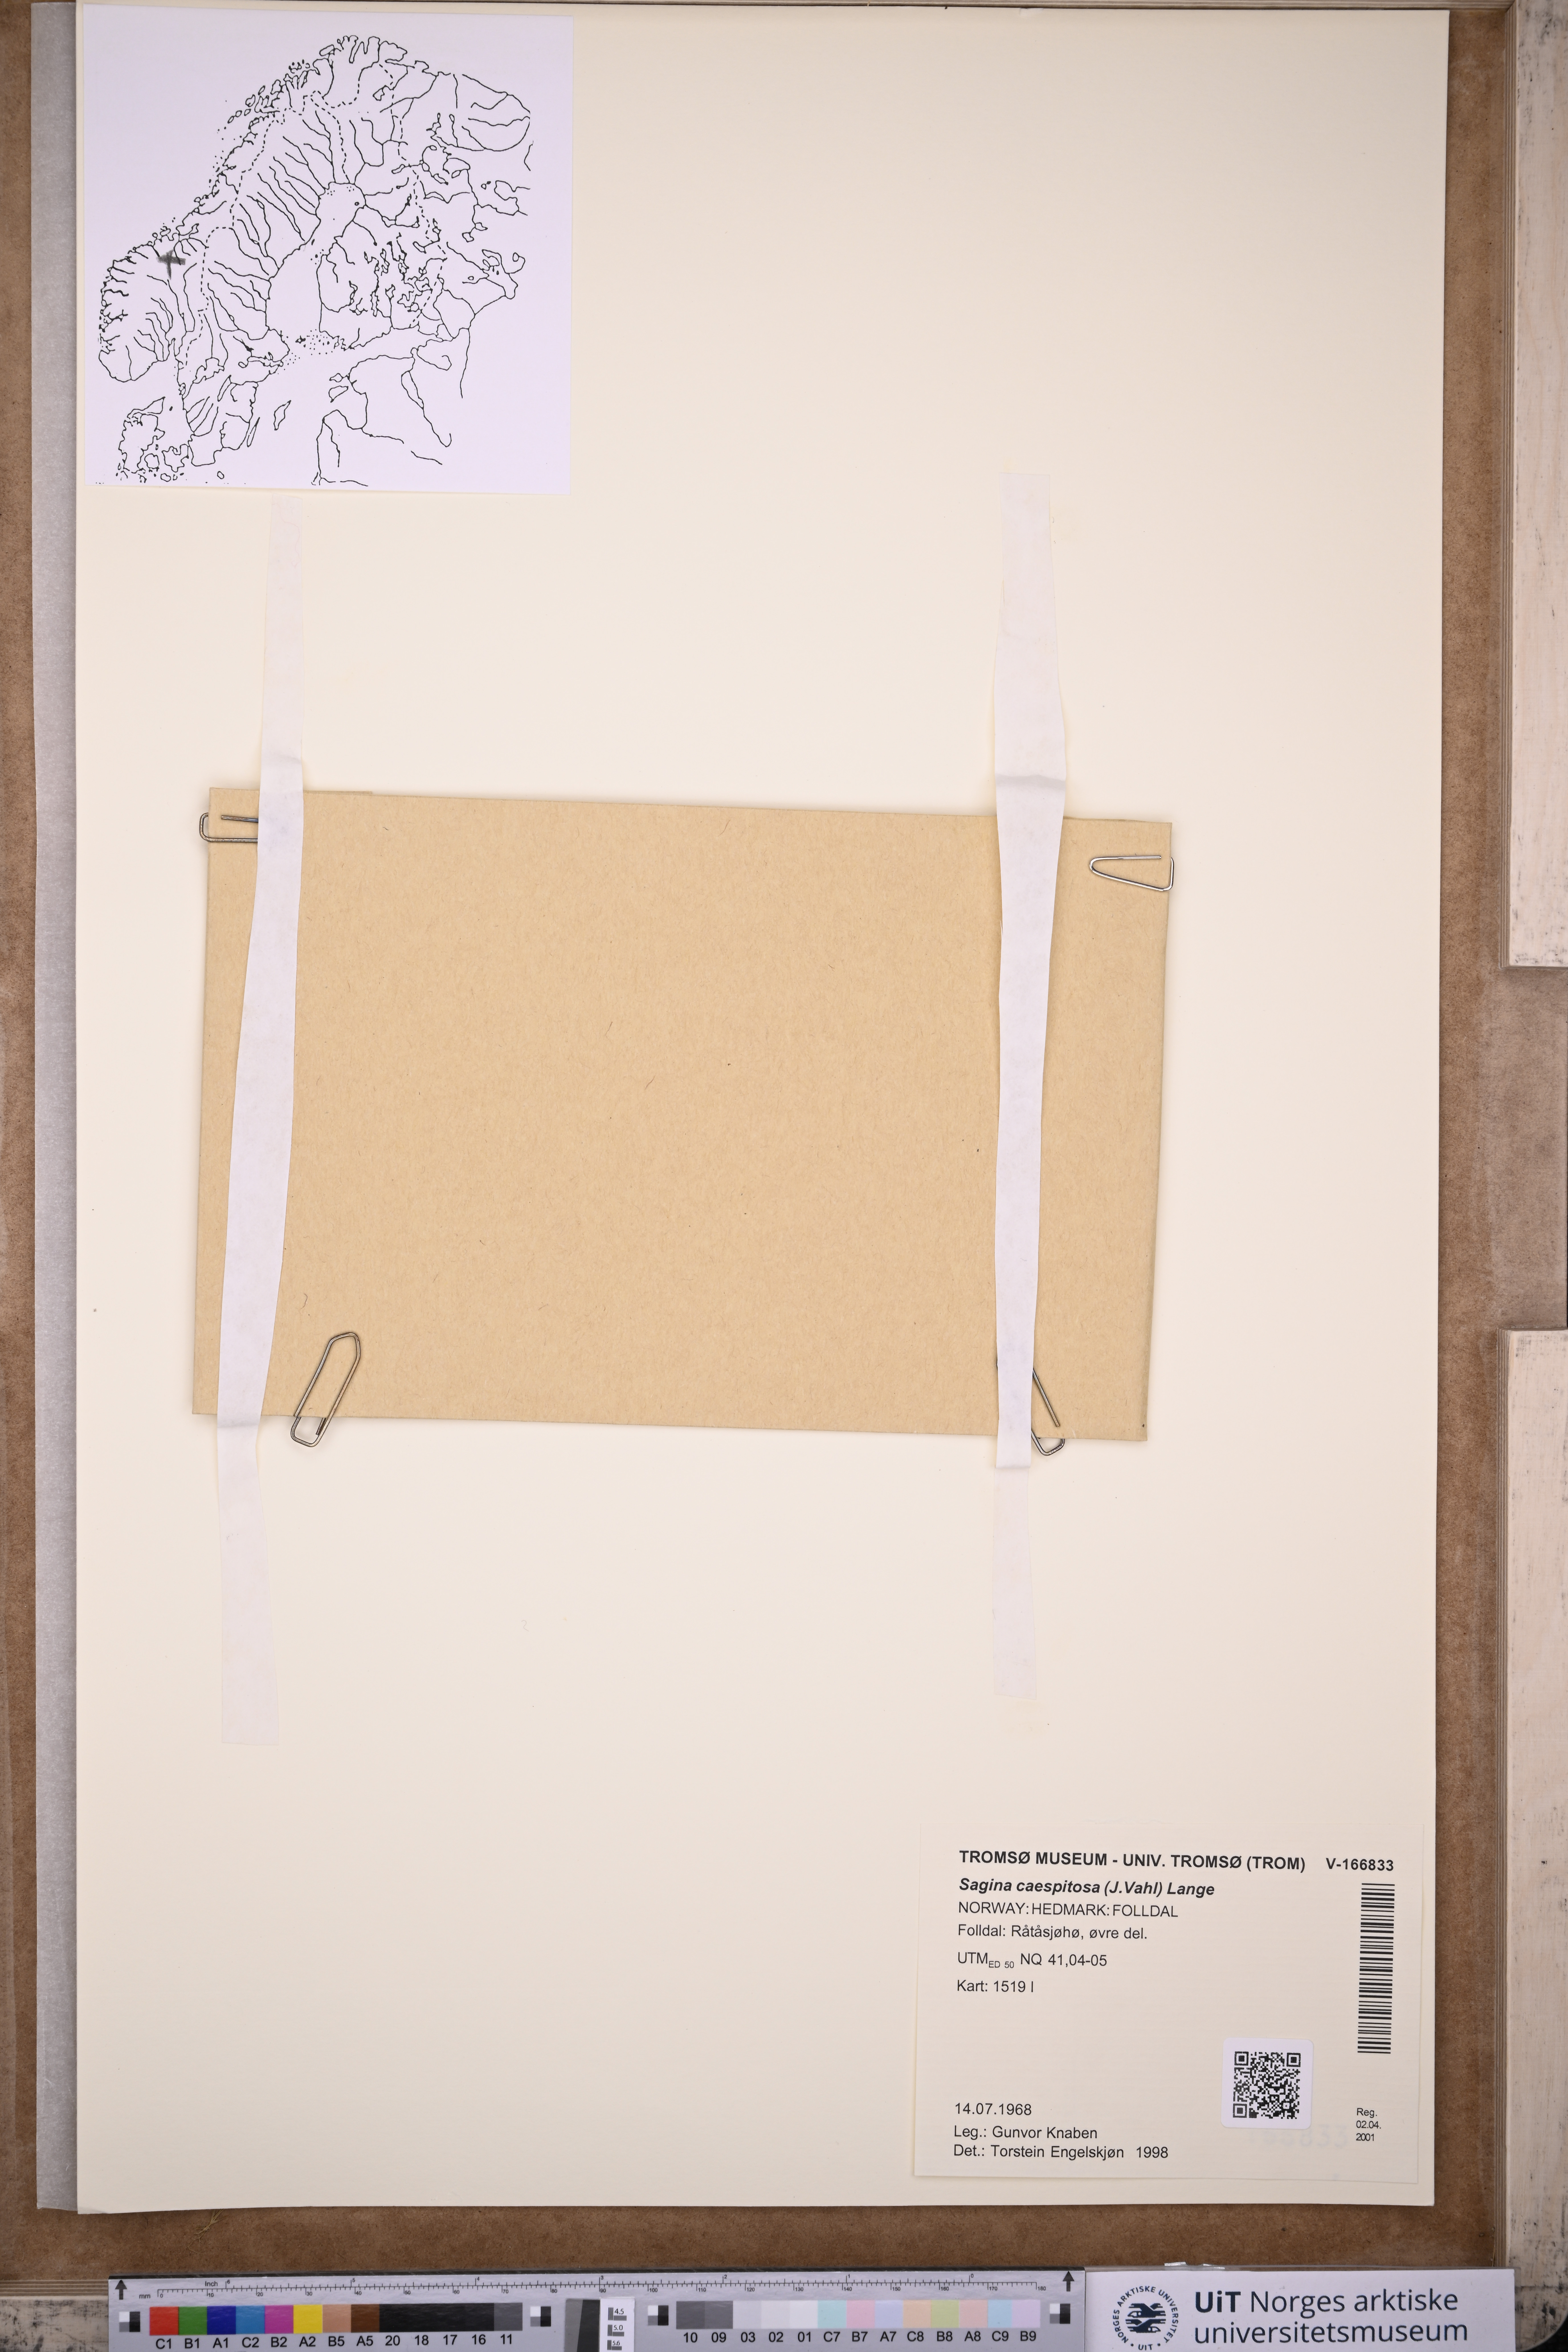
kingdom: Plantae
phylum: Tracheophyta
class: Magnoliopsida
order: Caryophyllales
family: Caryophyllaceae
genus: Sagina
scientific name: Sagina caespitosa
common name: Tufted pearlwort
